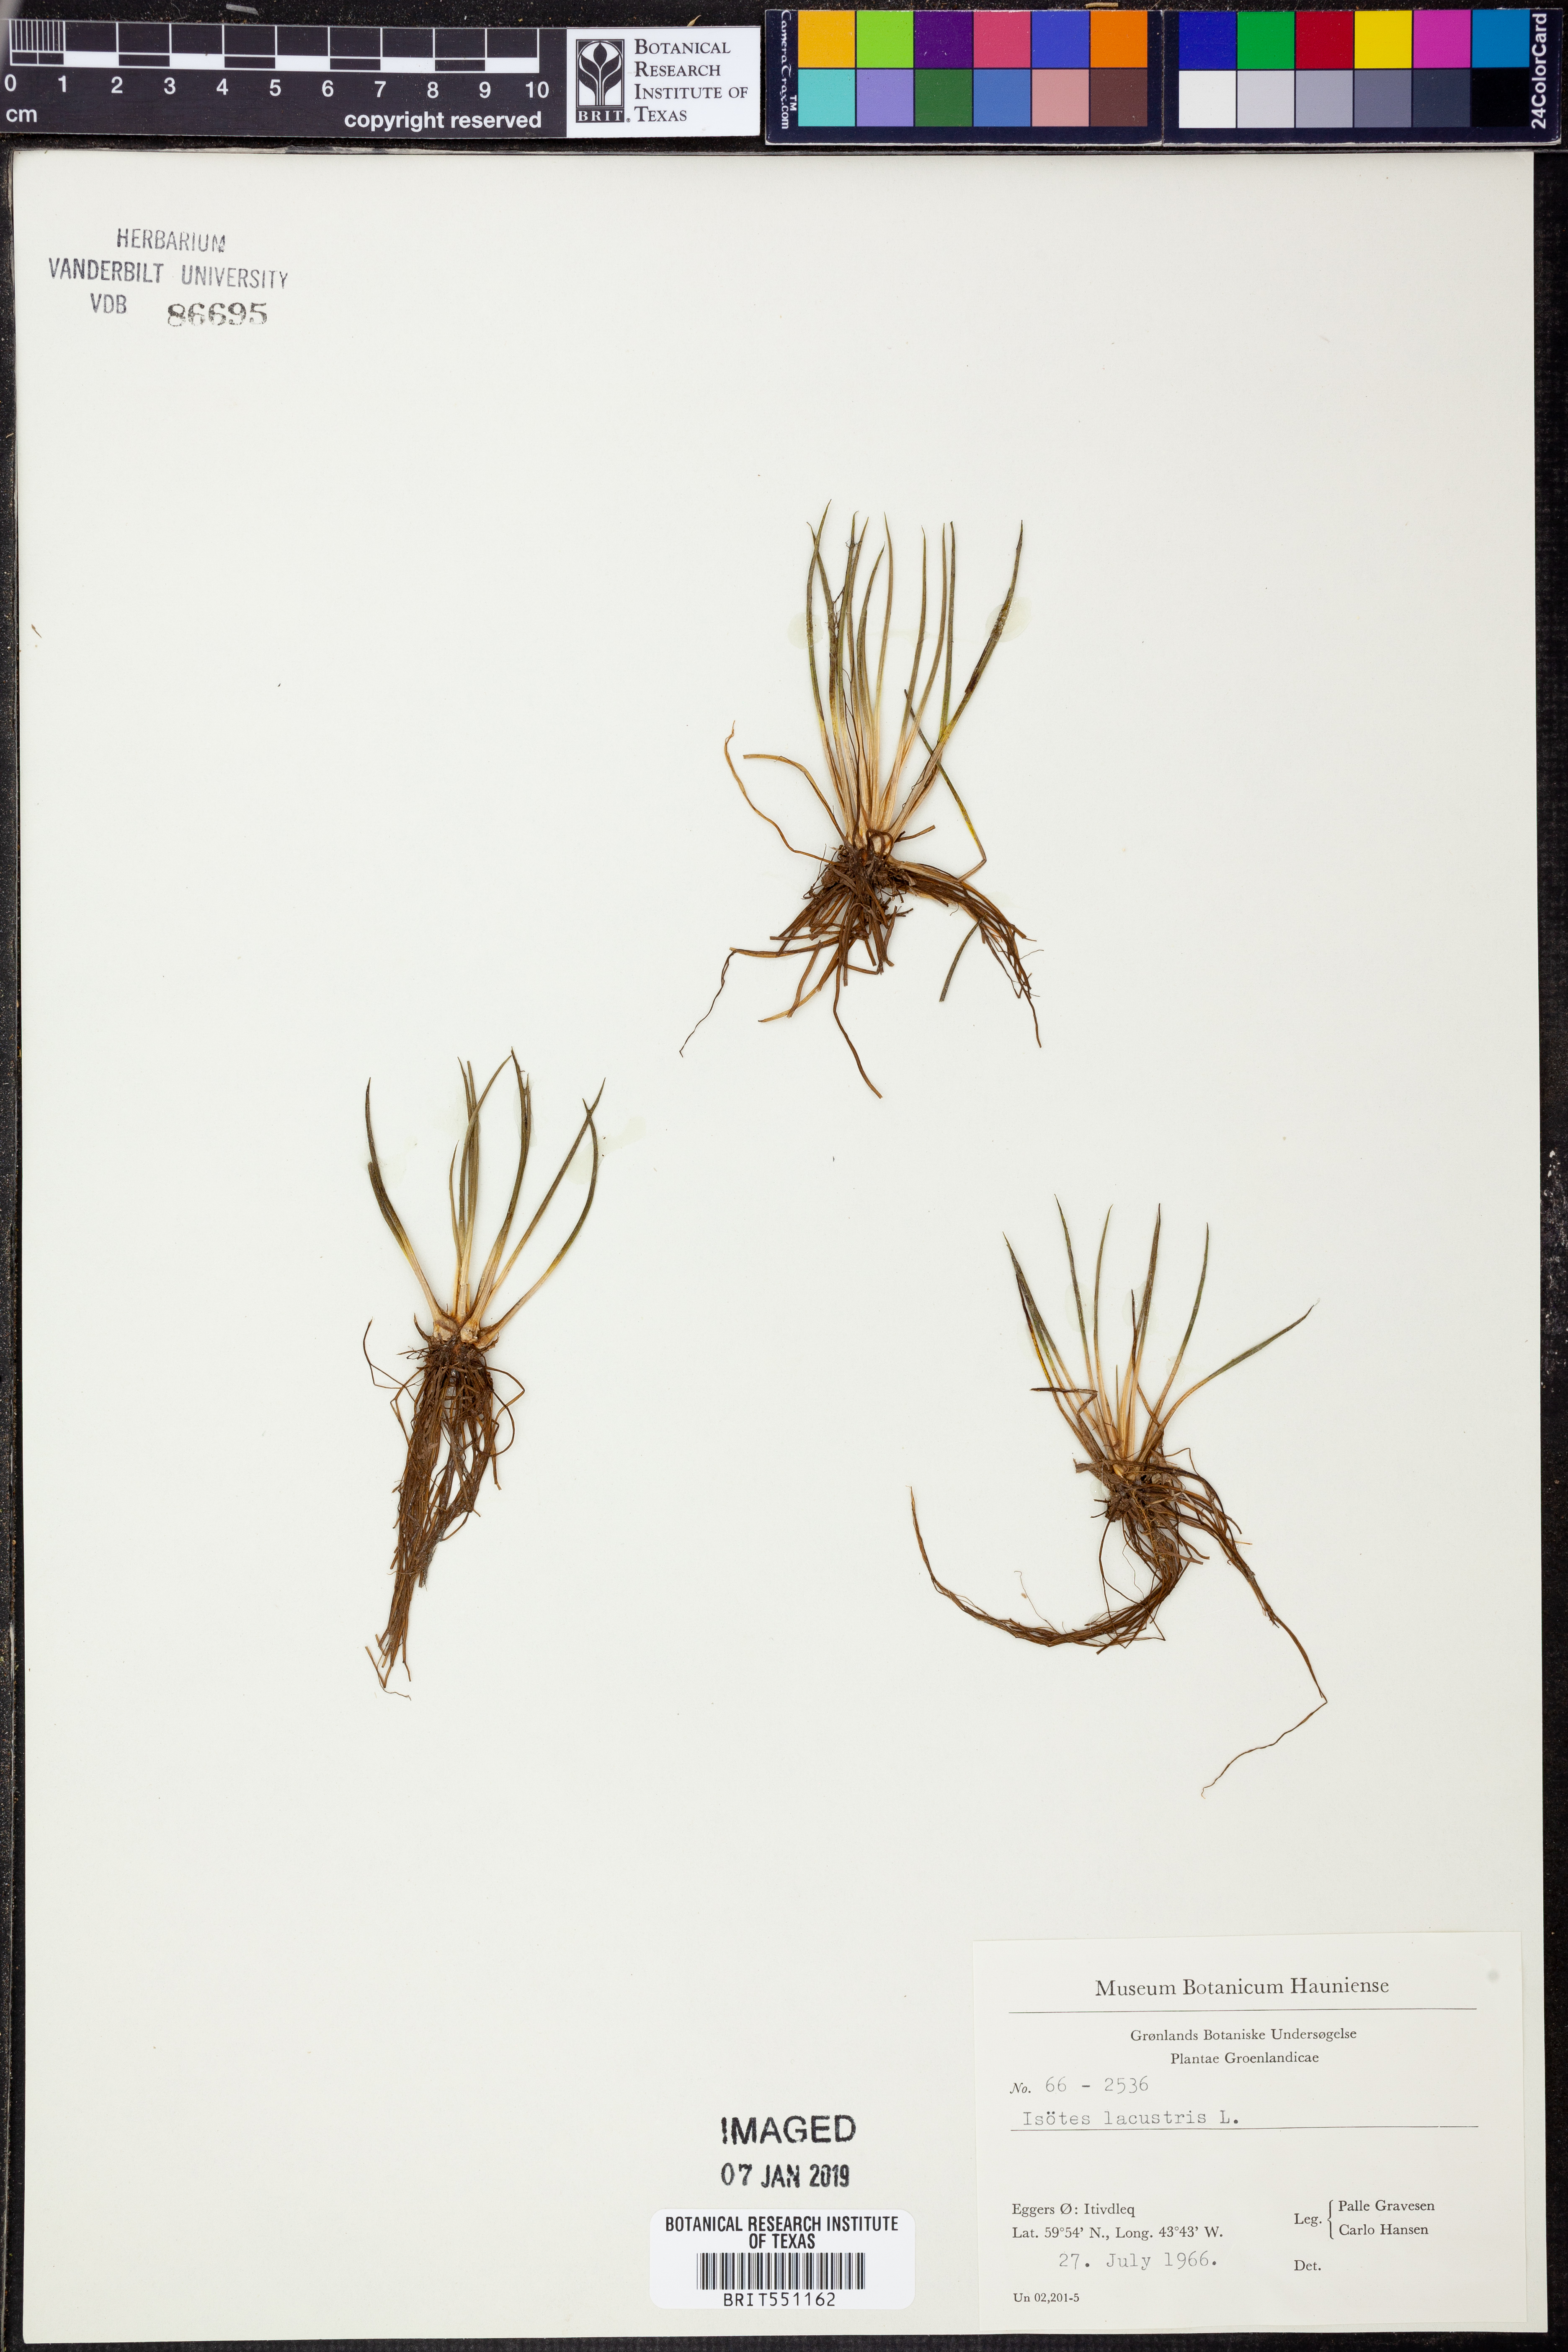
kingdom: Plantae
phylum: Tracheophyta
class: Lycopodiopsida
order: Isoetales
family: Isoetaceae
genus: Isoetes
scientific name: Isoetes lacustris
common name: Common quillwort
